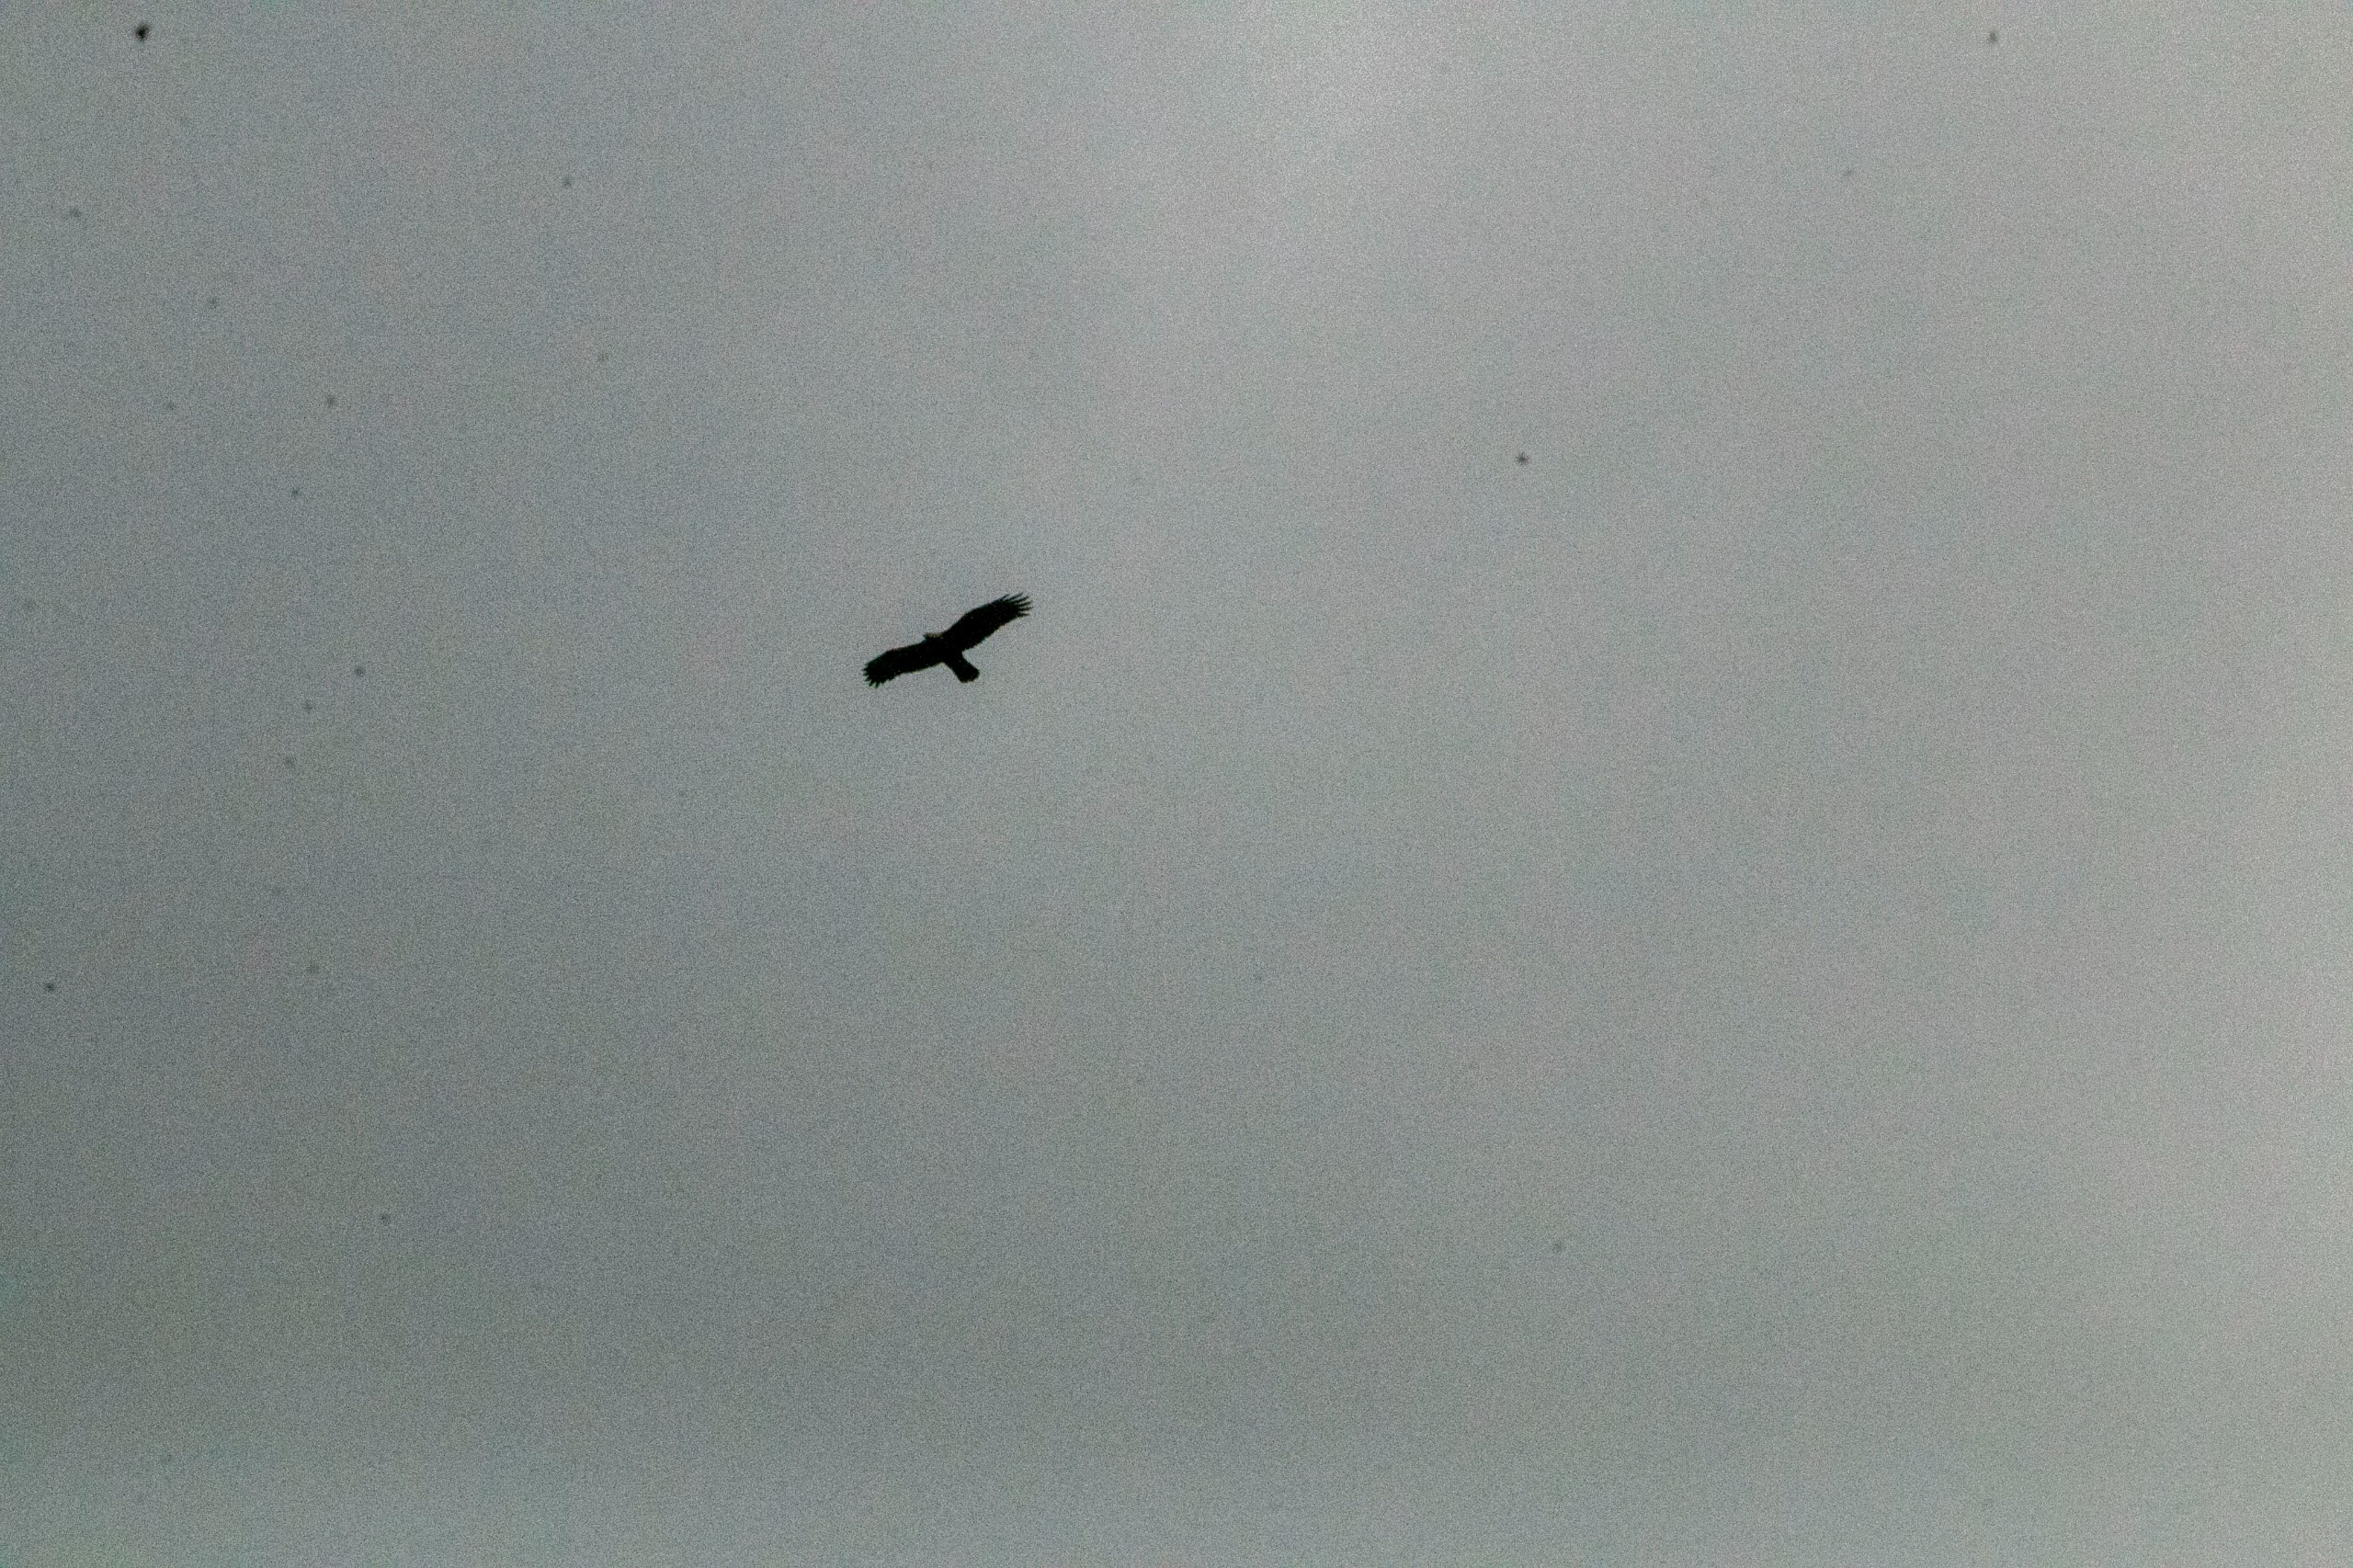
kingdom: Animalia
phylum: Chordata
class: Aves
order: Accipitriformes
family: Accipitridae
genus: Aquila
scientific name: Aquila chrysaetos
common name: Kongeørn
